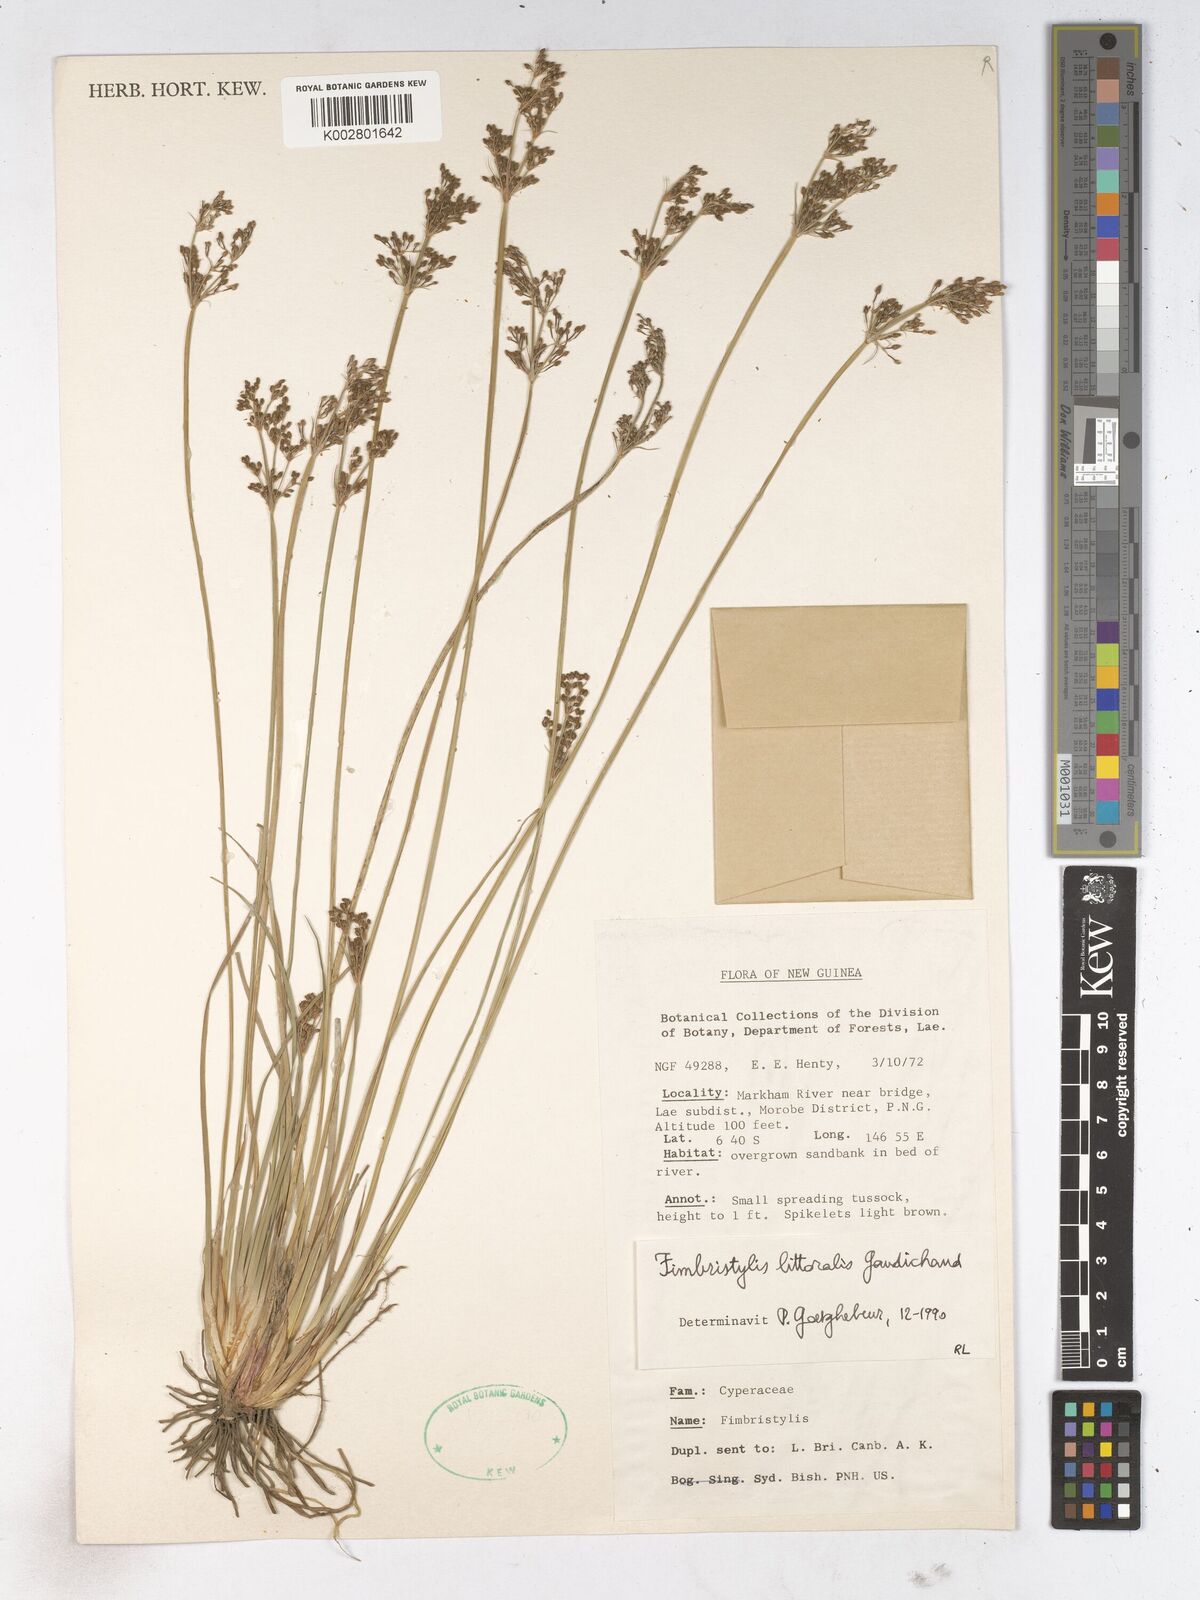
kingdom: Plantae
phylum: Tracheophyta
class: Liliopsida
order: Poales
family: Cyperaceae
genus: Fimbristylis
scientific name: Fimbristylis littoralis
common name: Fimbry
